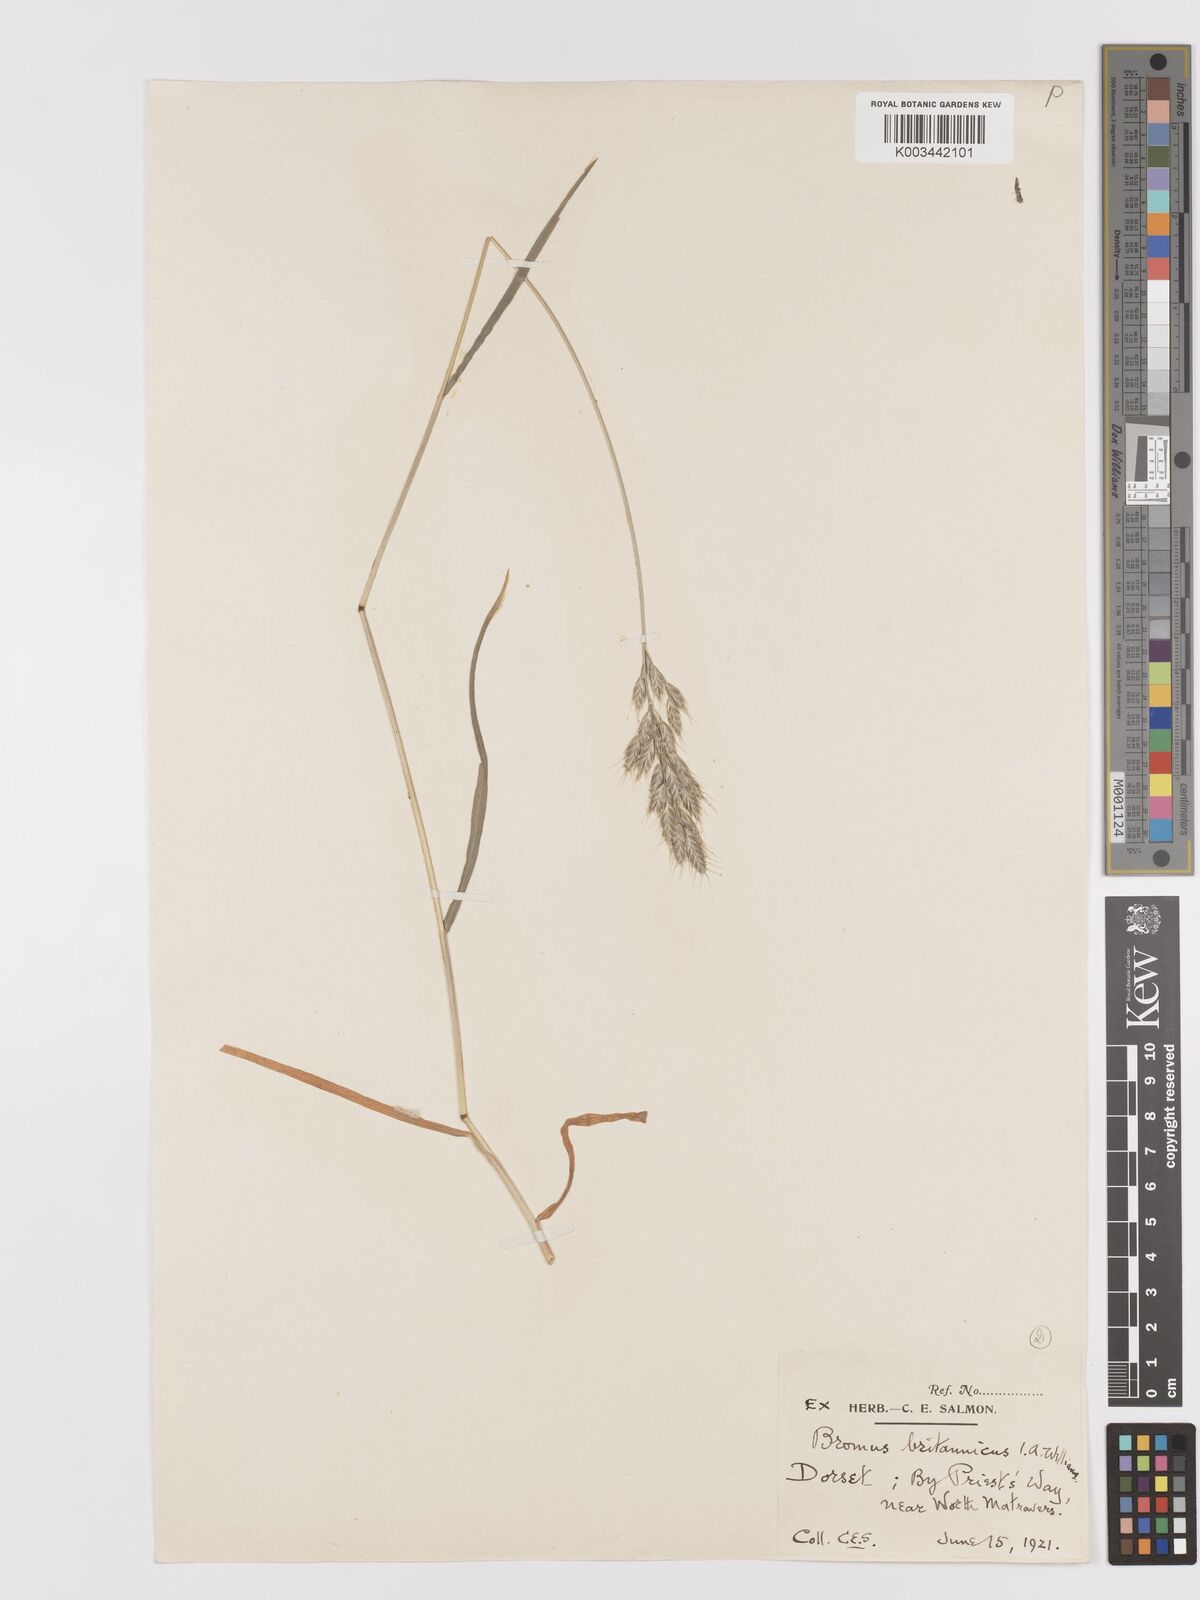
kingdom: Plantae
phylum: Tracheophyta
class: Liliopsida
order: Poales
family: Poaceae
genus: Bromus
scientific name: Bromus lepidus
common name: Slender soft-brome
